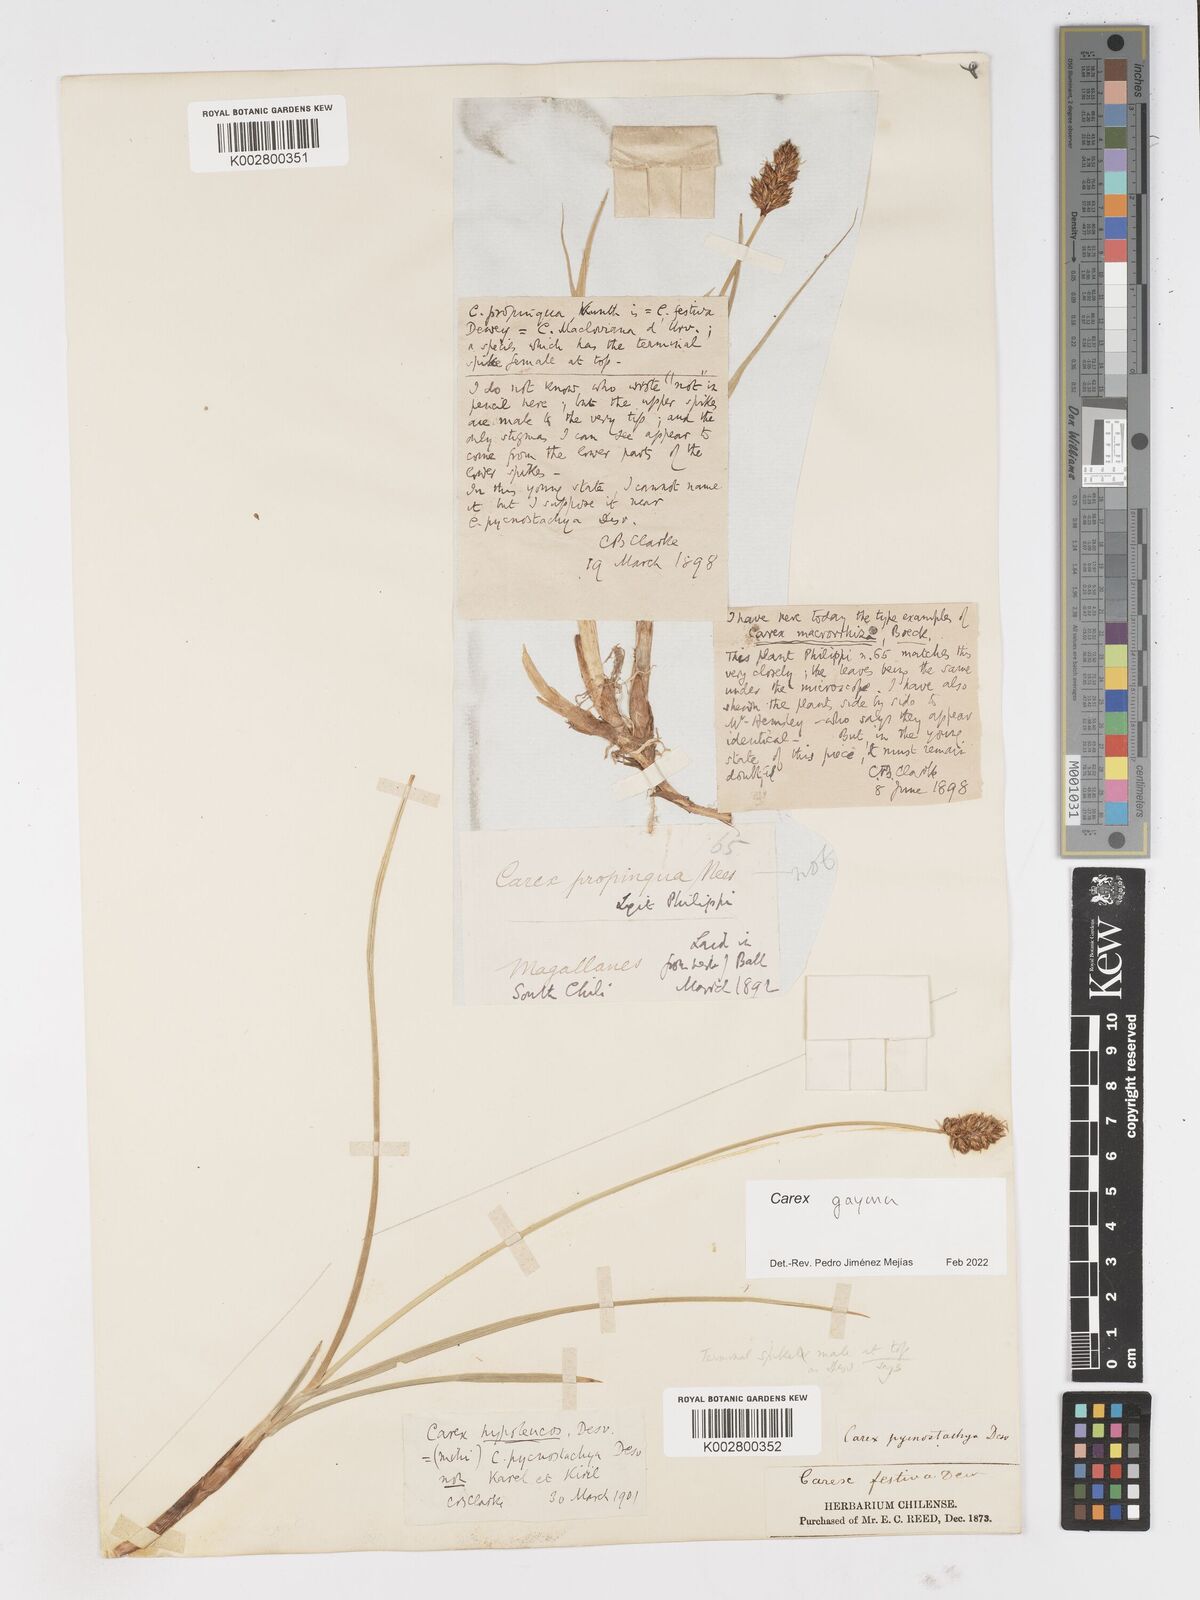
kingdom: Plantae
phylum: Tracheophyta
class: Liliopsida
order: Poales
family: Cyperaceae
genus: Carex
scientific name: Carex gayana
